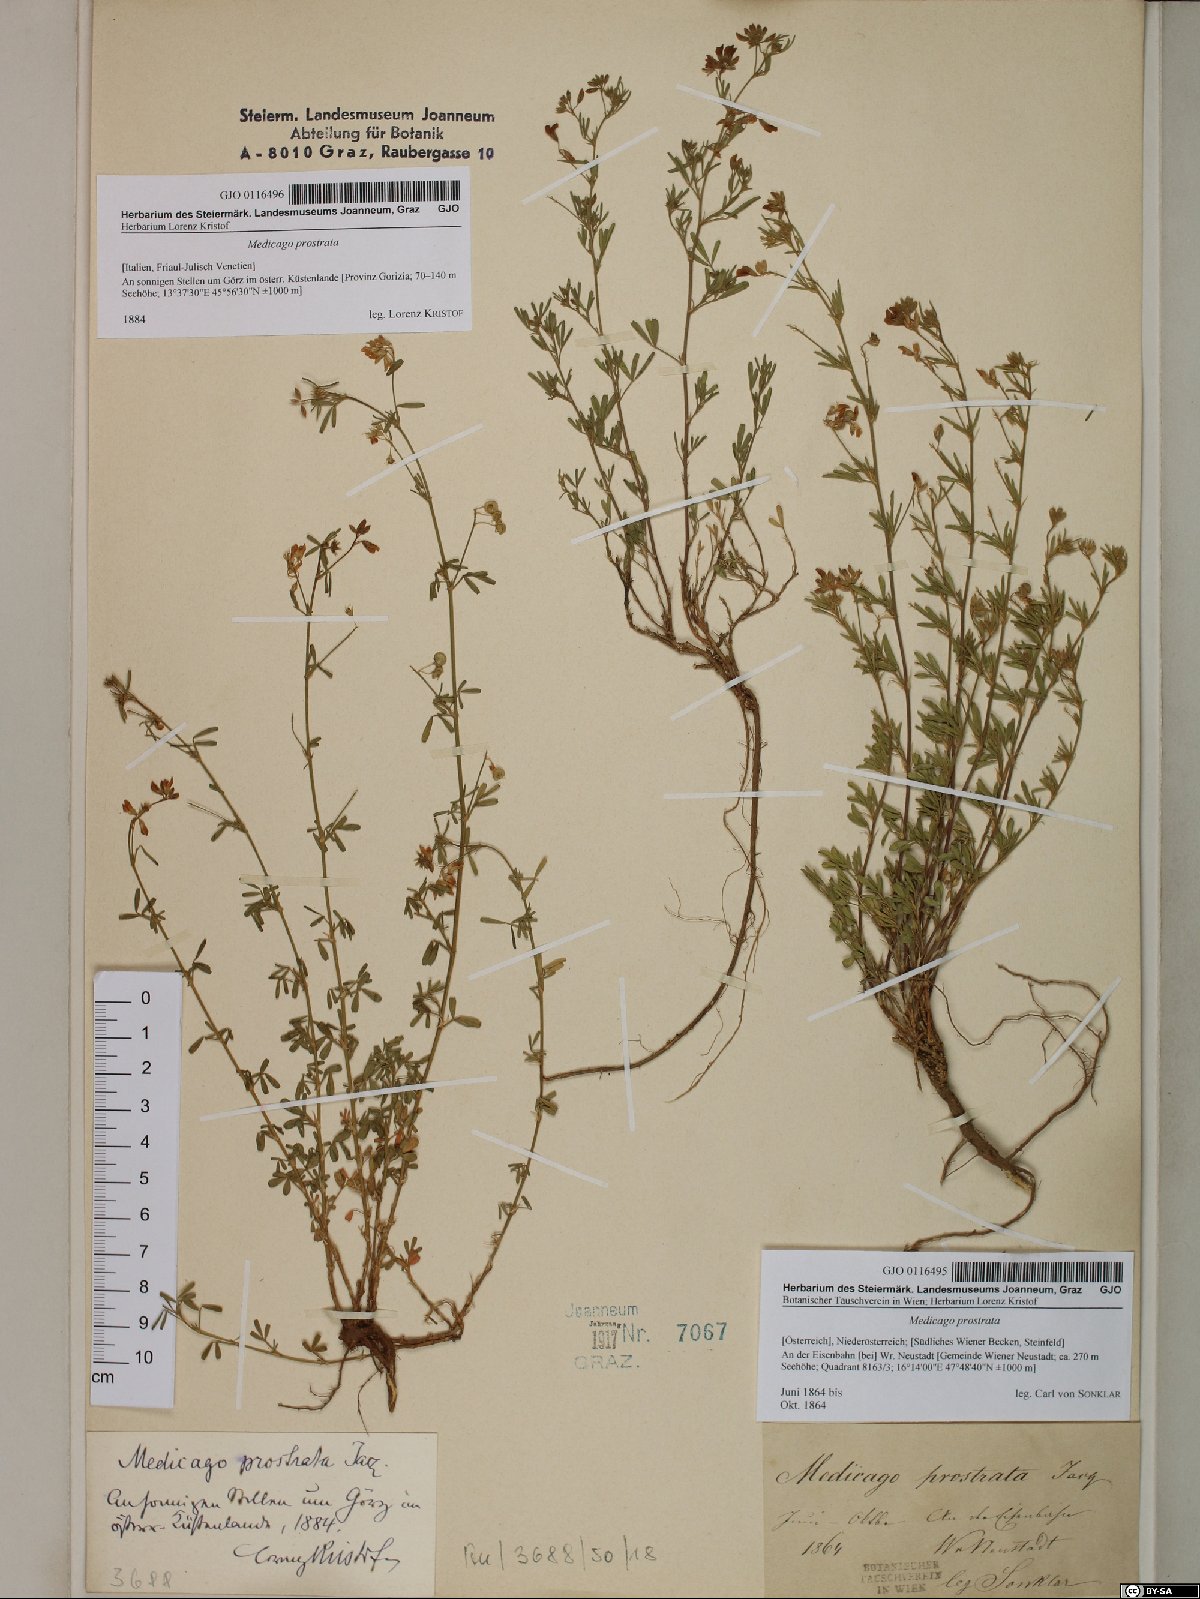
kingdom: Plantae
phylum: Tracheophyta
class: Magnoliopsida
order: Fabales
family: Fabaceae
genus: Medicago
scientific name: Medicago prostrata
